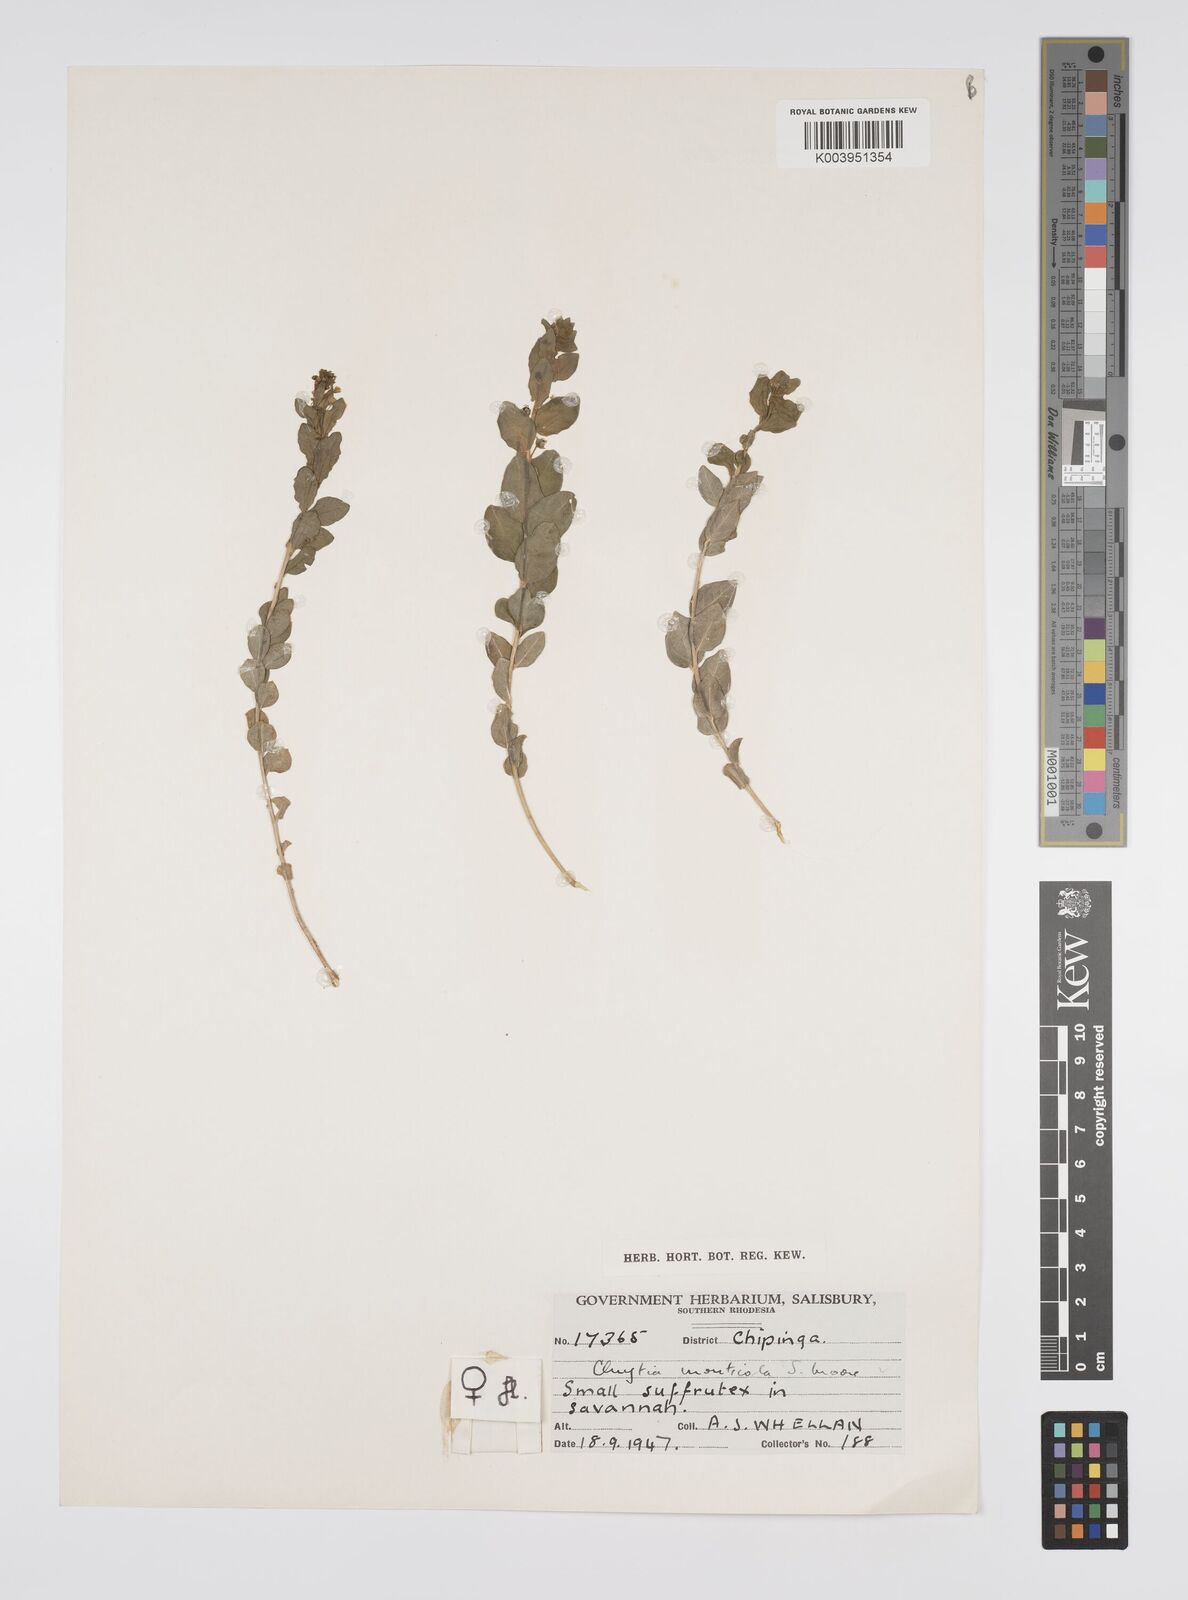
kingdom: Plantae
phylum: Tracheophyta
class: Magnoliopsida
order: Malpighiales
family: Peraceae
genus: Clutia
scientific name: Clutia monticola
